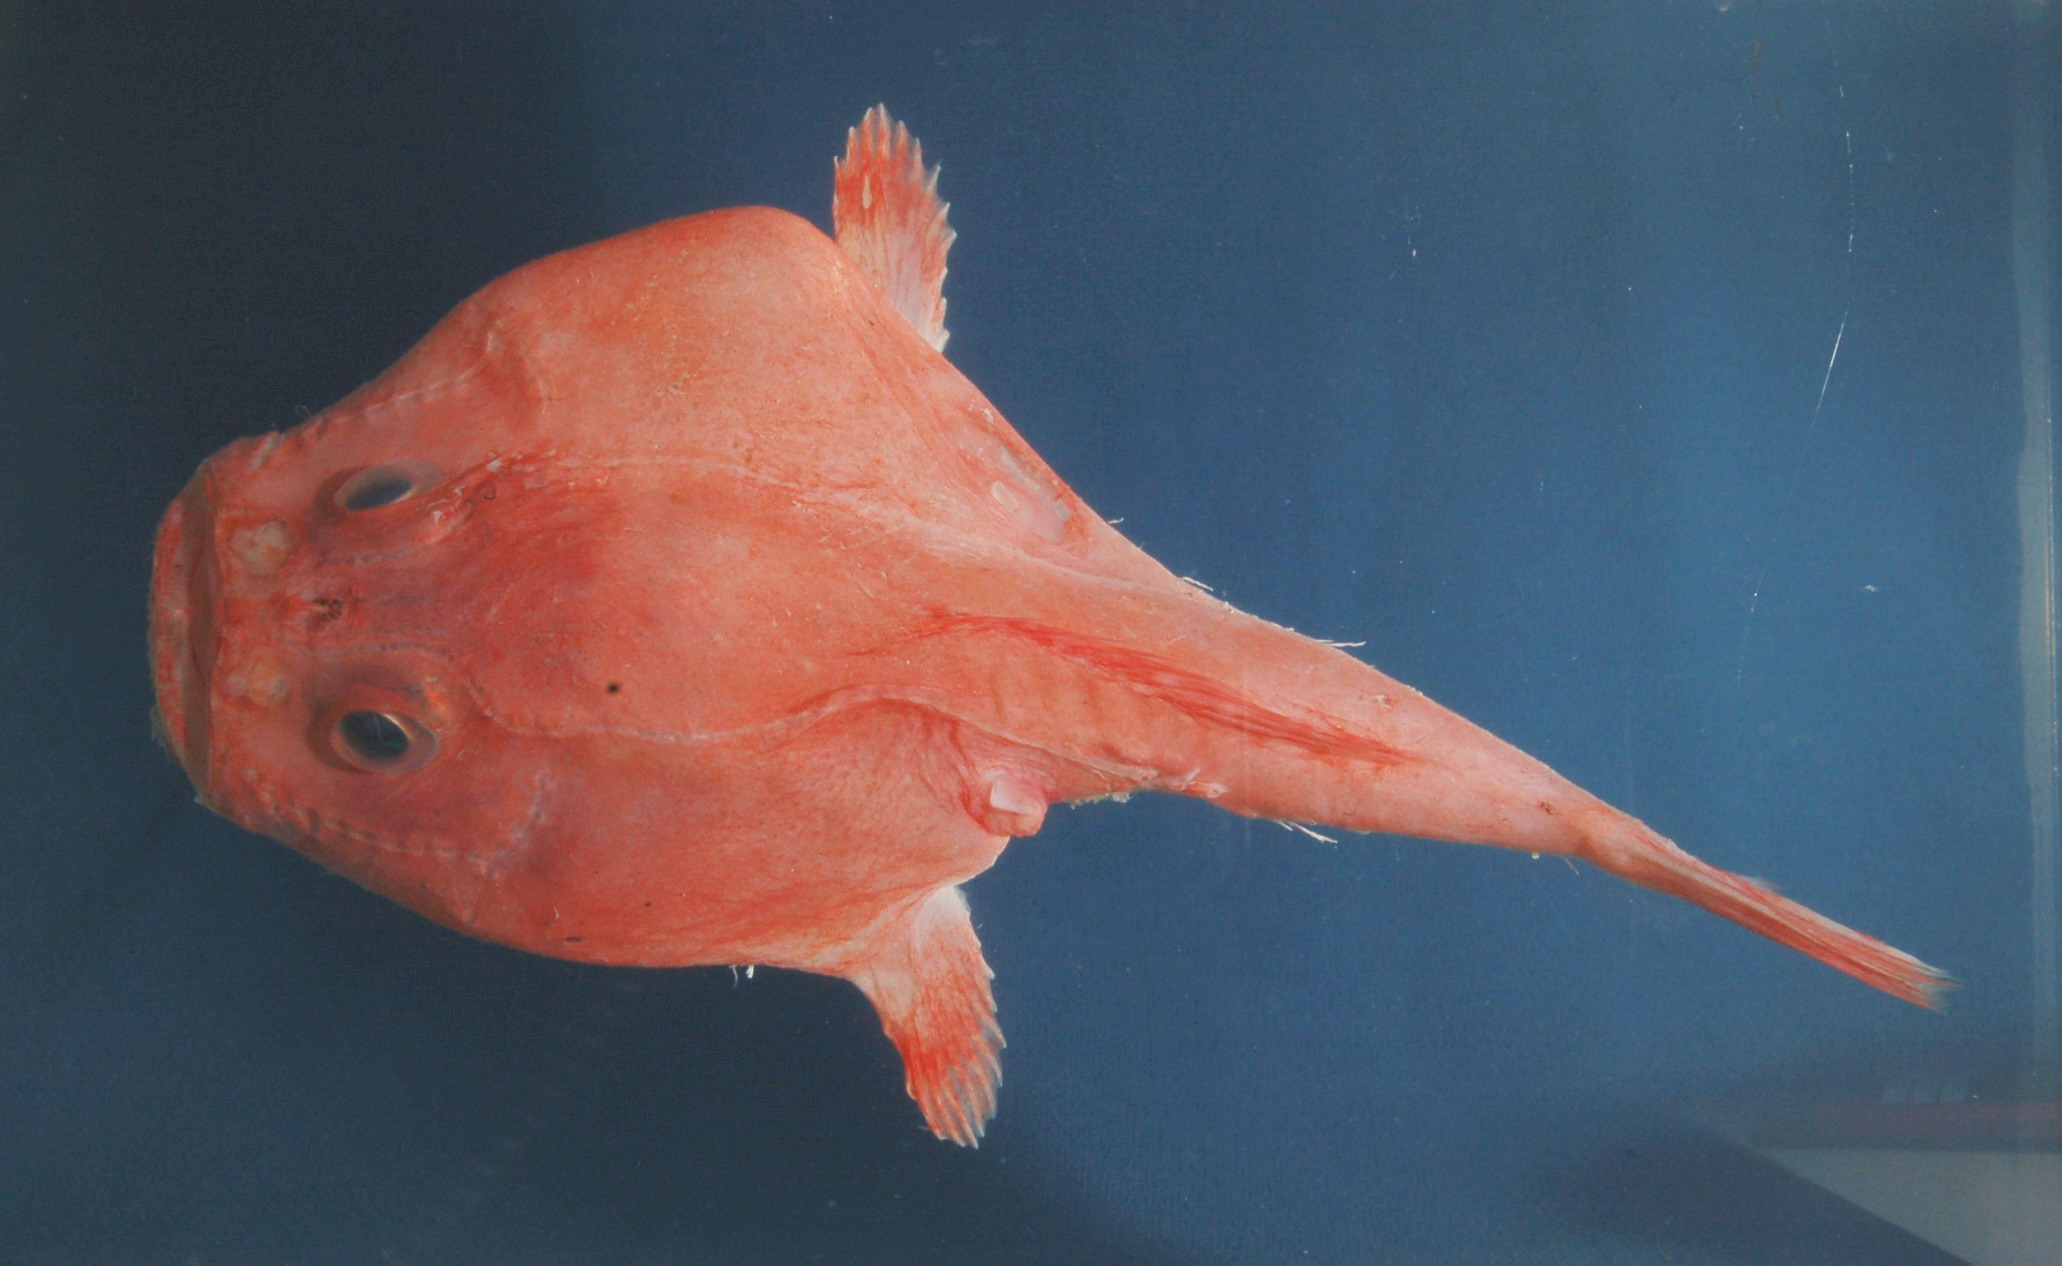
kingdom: Animalia
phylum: Chordata
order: Lophiiformes
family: Chaunacidae
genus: Chaunax
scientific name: Chaunax nudiventer
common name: Naked-belly frogmouth
